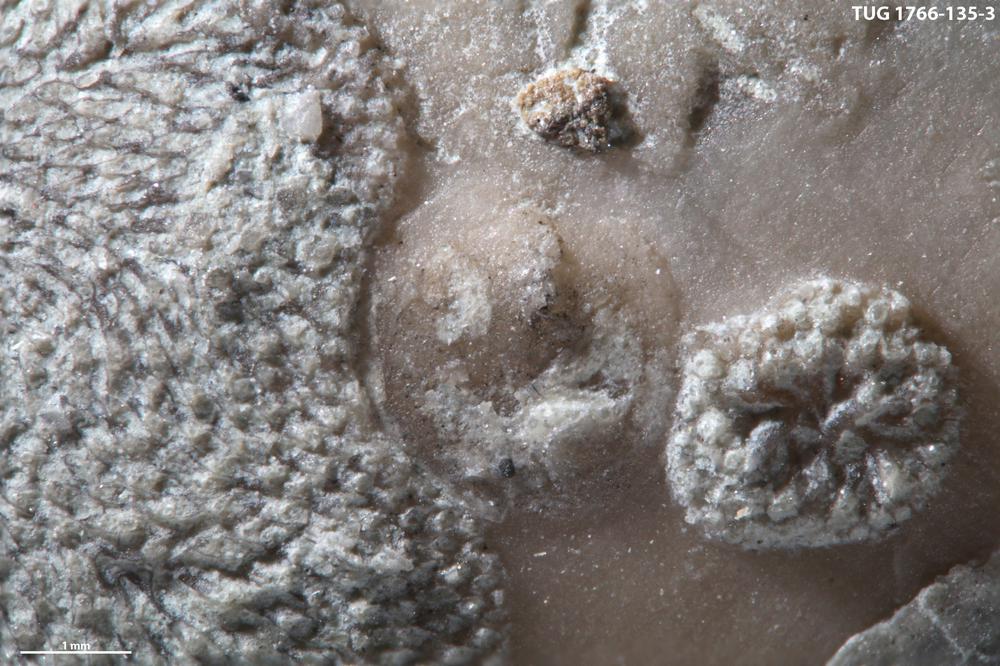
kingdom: Animalia
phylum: Brachiopoda
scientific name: Brachiopoda
